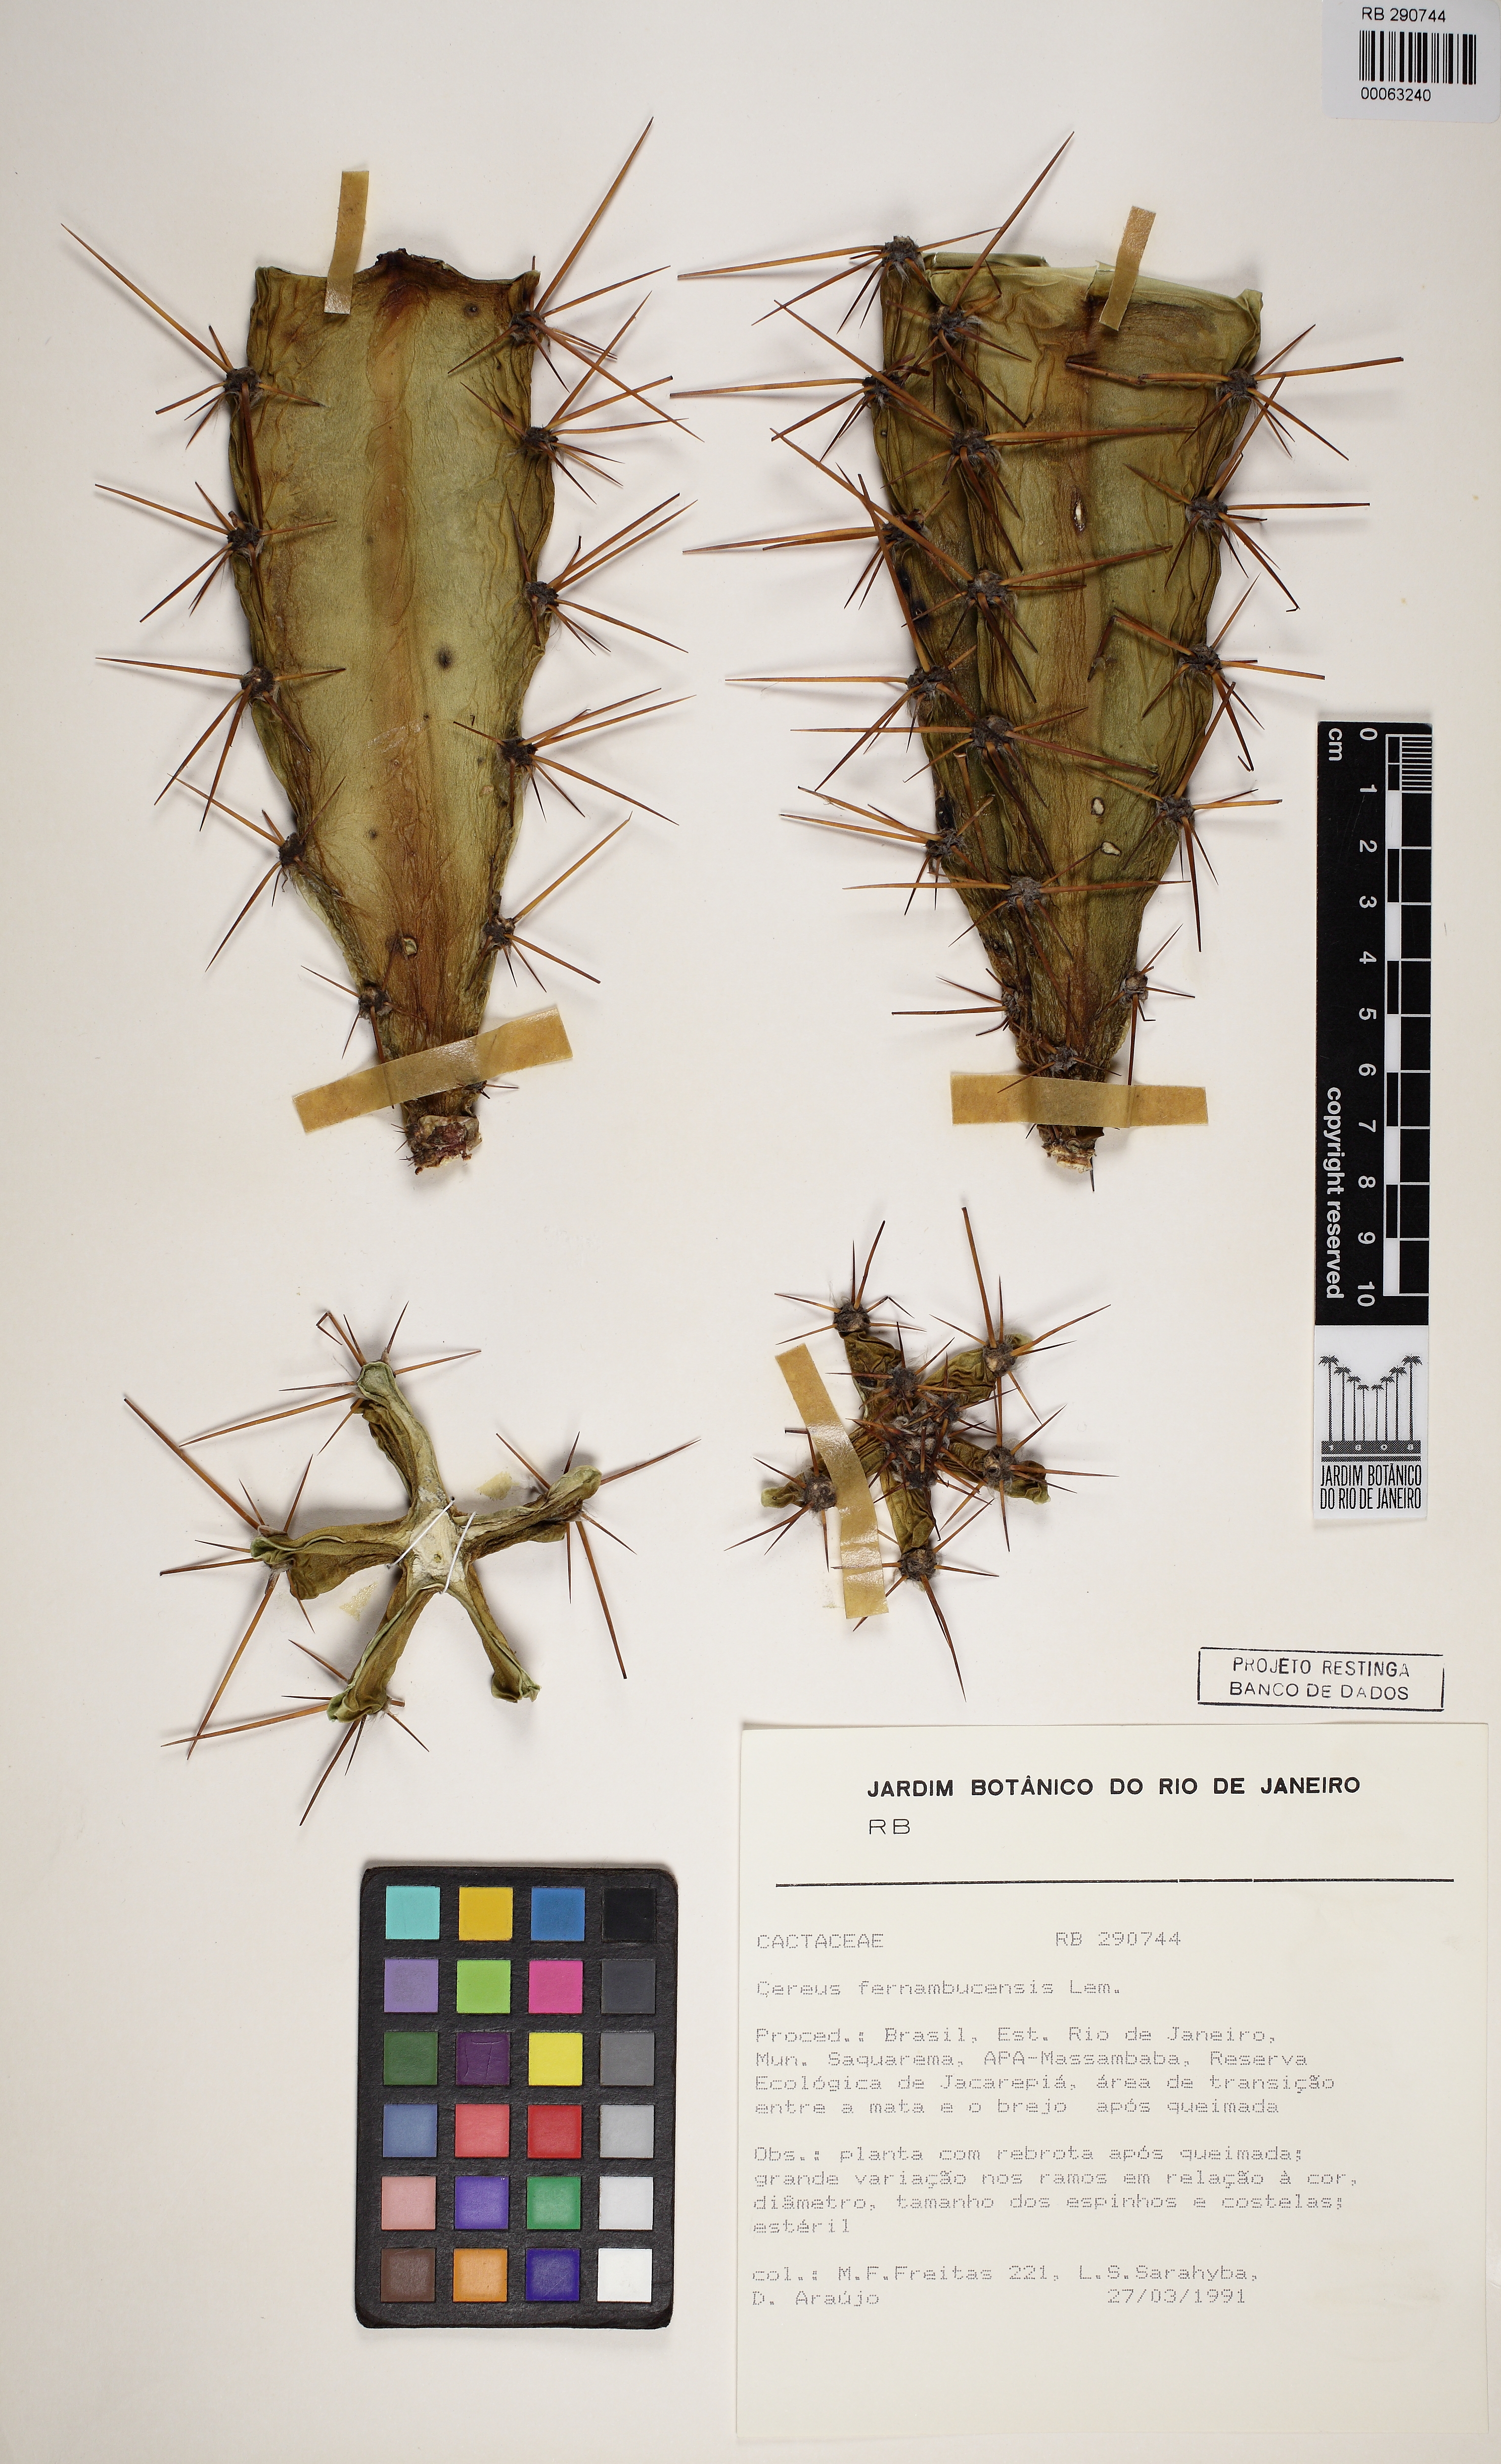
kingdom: Plantae
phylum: Tracheophyta
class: Magnoliopsida
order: Caryophyllales
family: Cactaceae
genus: Cereus
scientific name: Cereus fernambucensis
